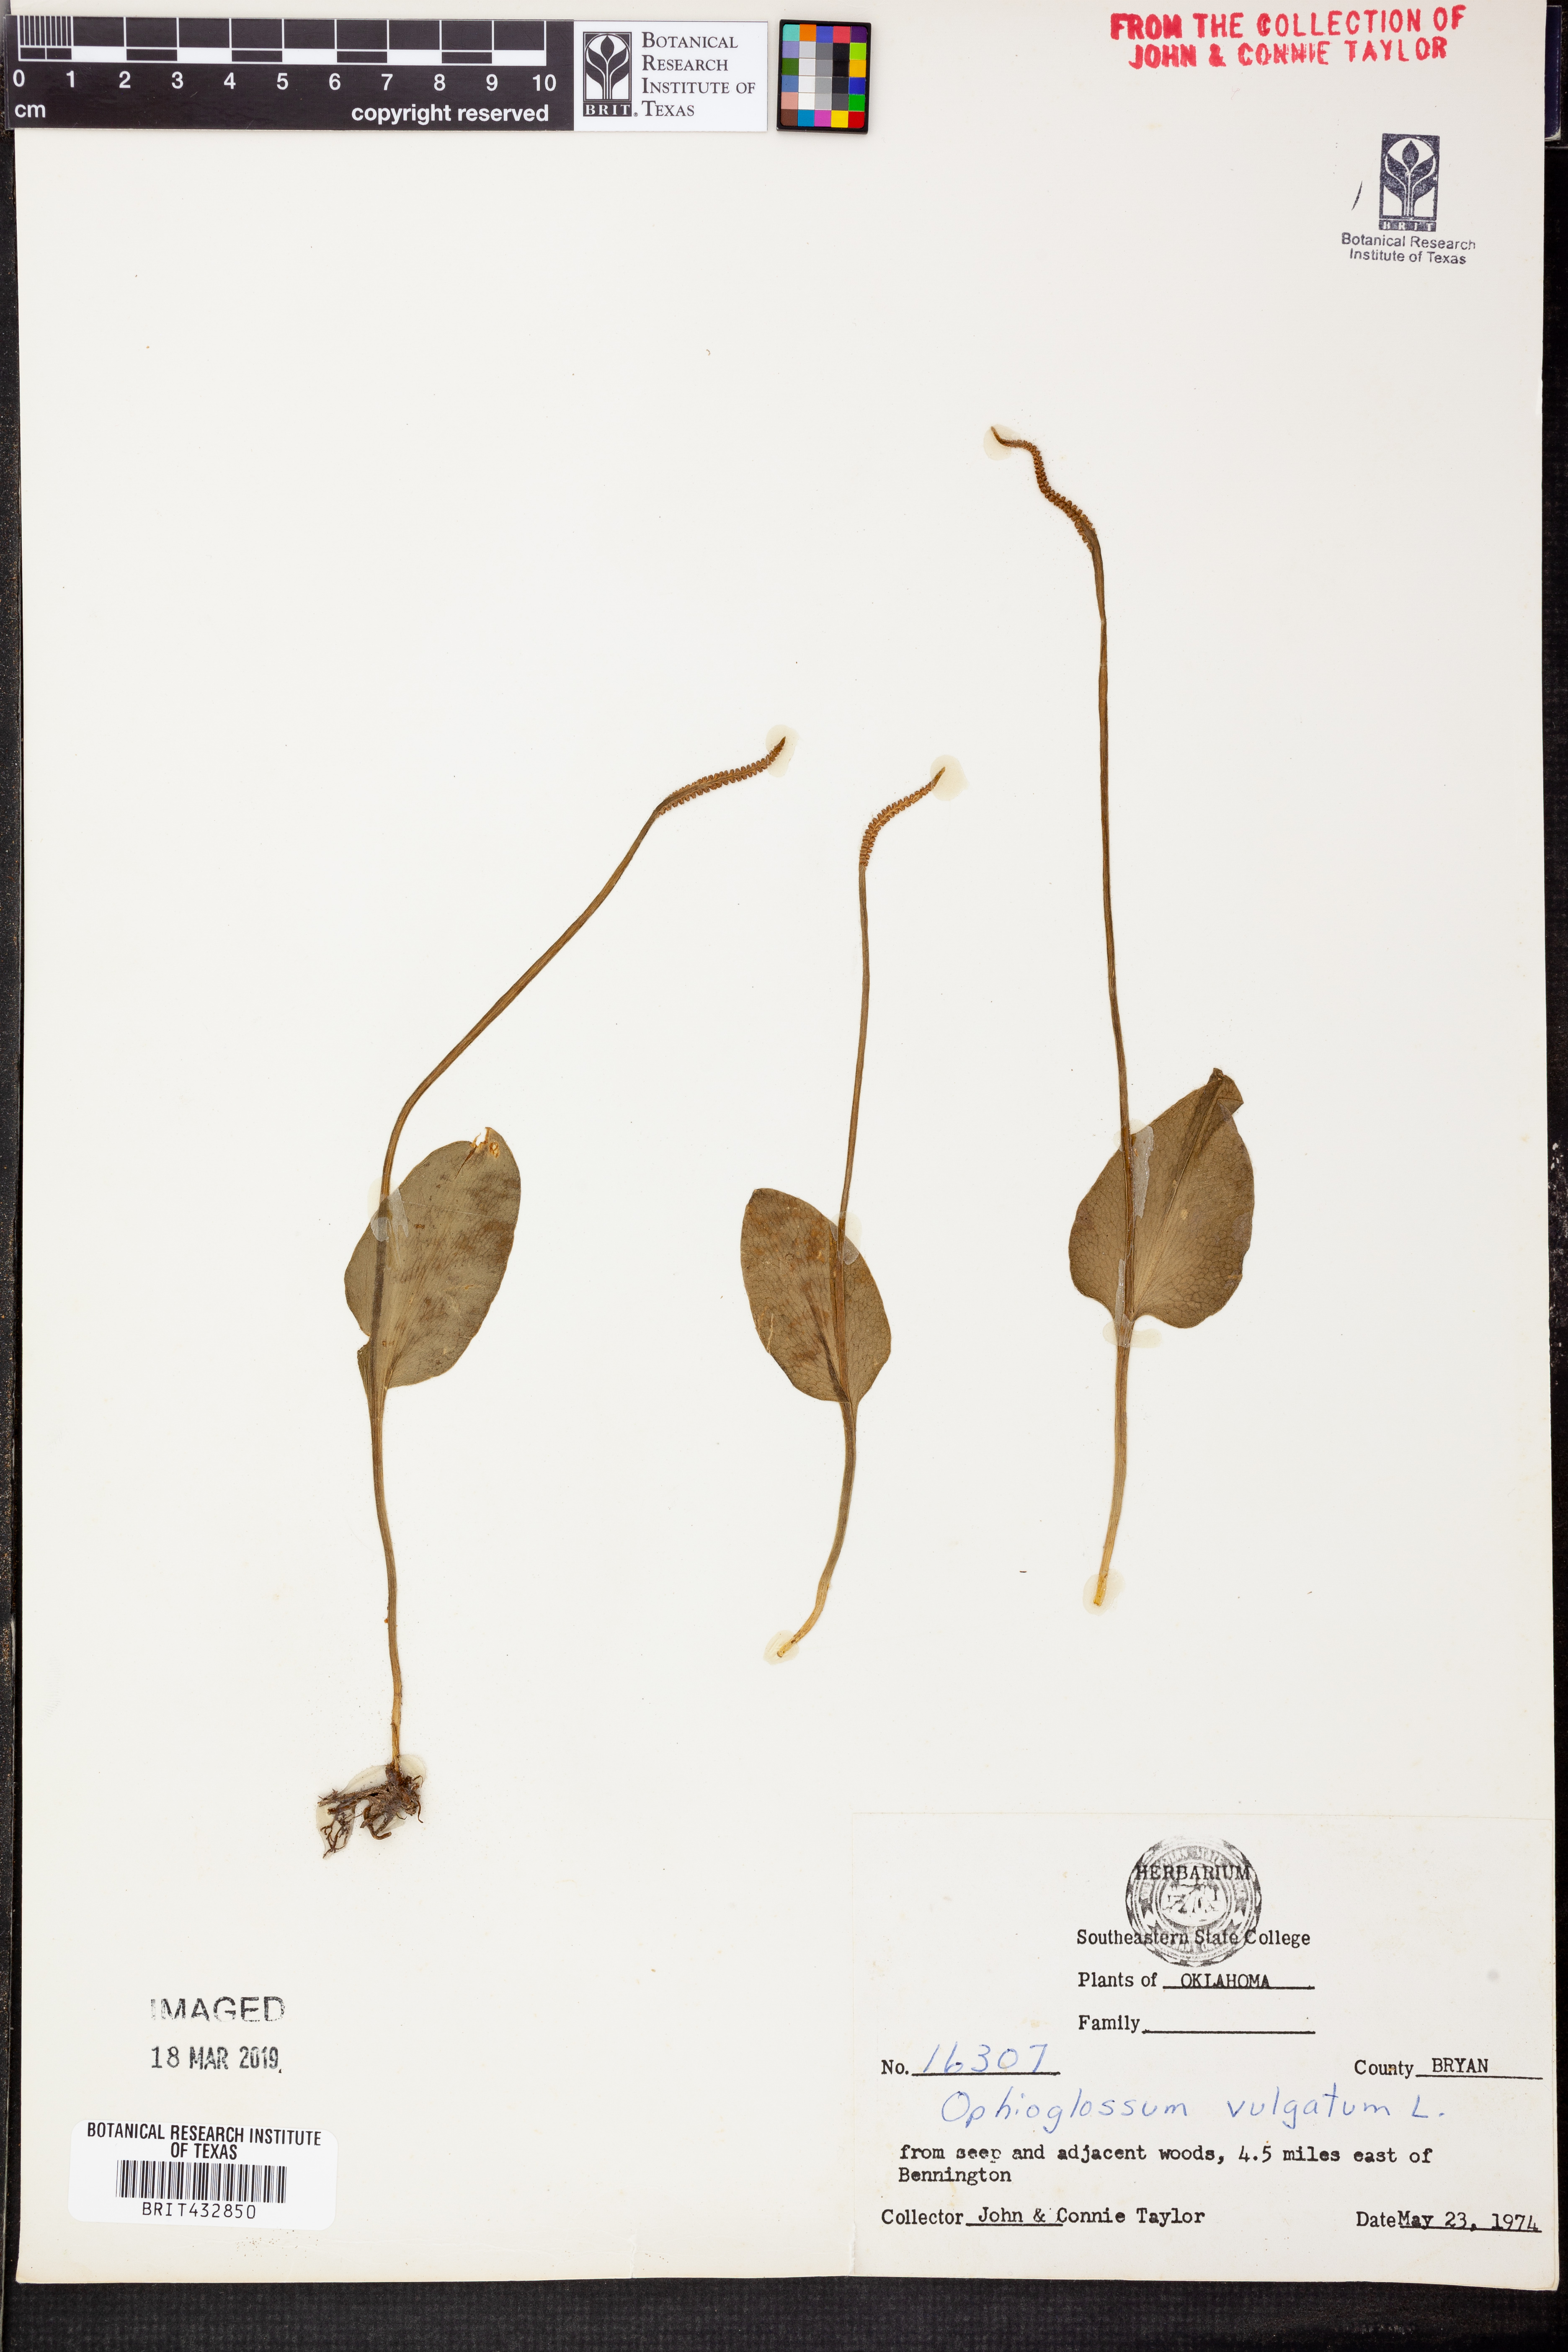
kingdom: Plantae
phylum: Tracheophyta
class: Polypodiopsida
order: Ophioglossales
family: Ophioglossaceae
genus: Ophioglossum
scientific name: Ophioglossum vulgatum
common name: Adder's-tongue
